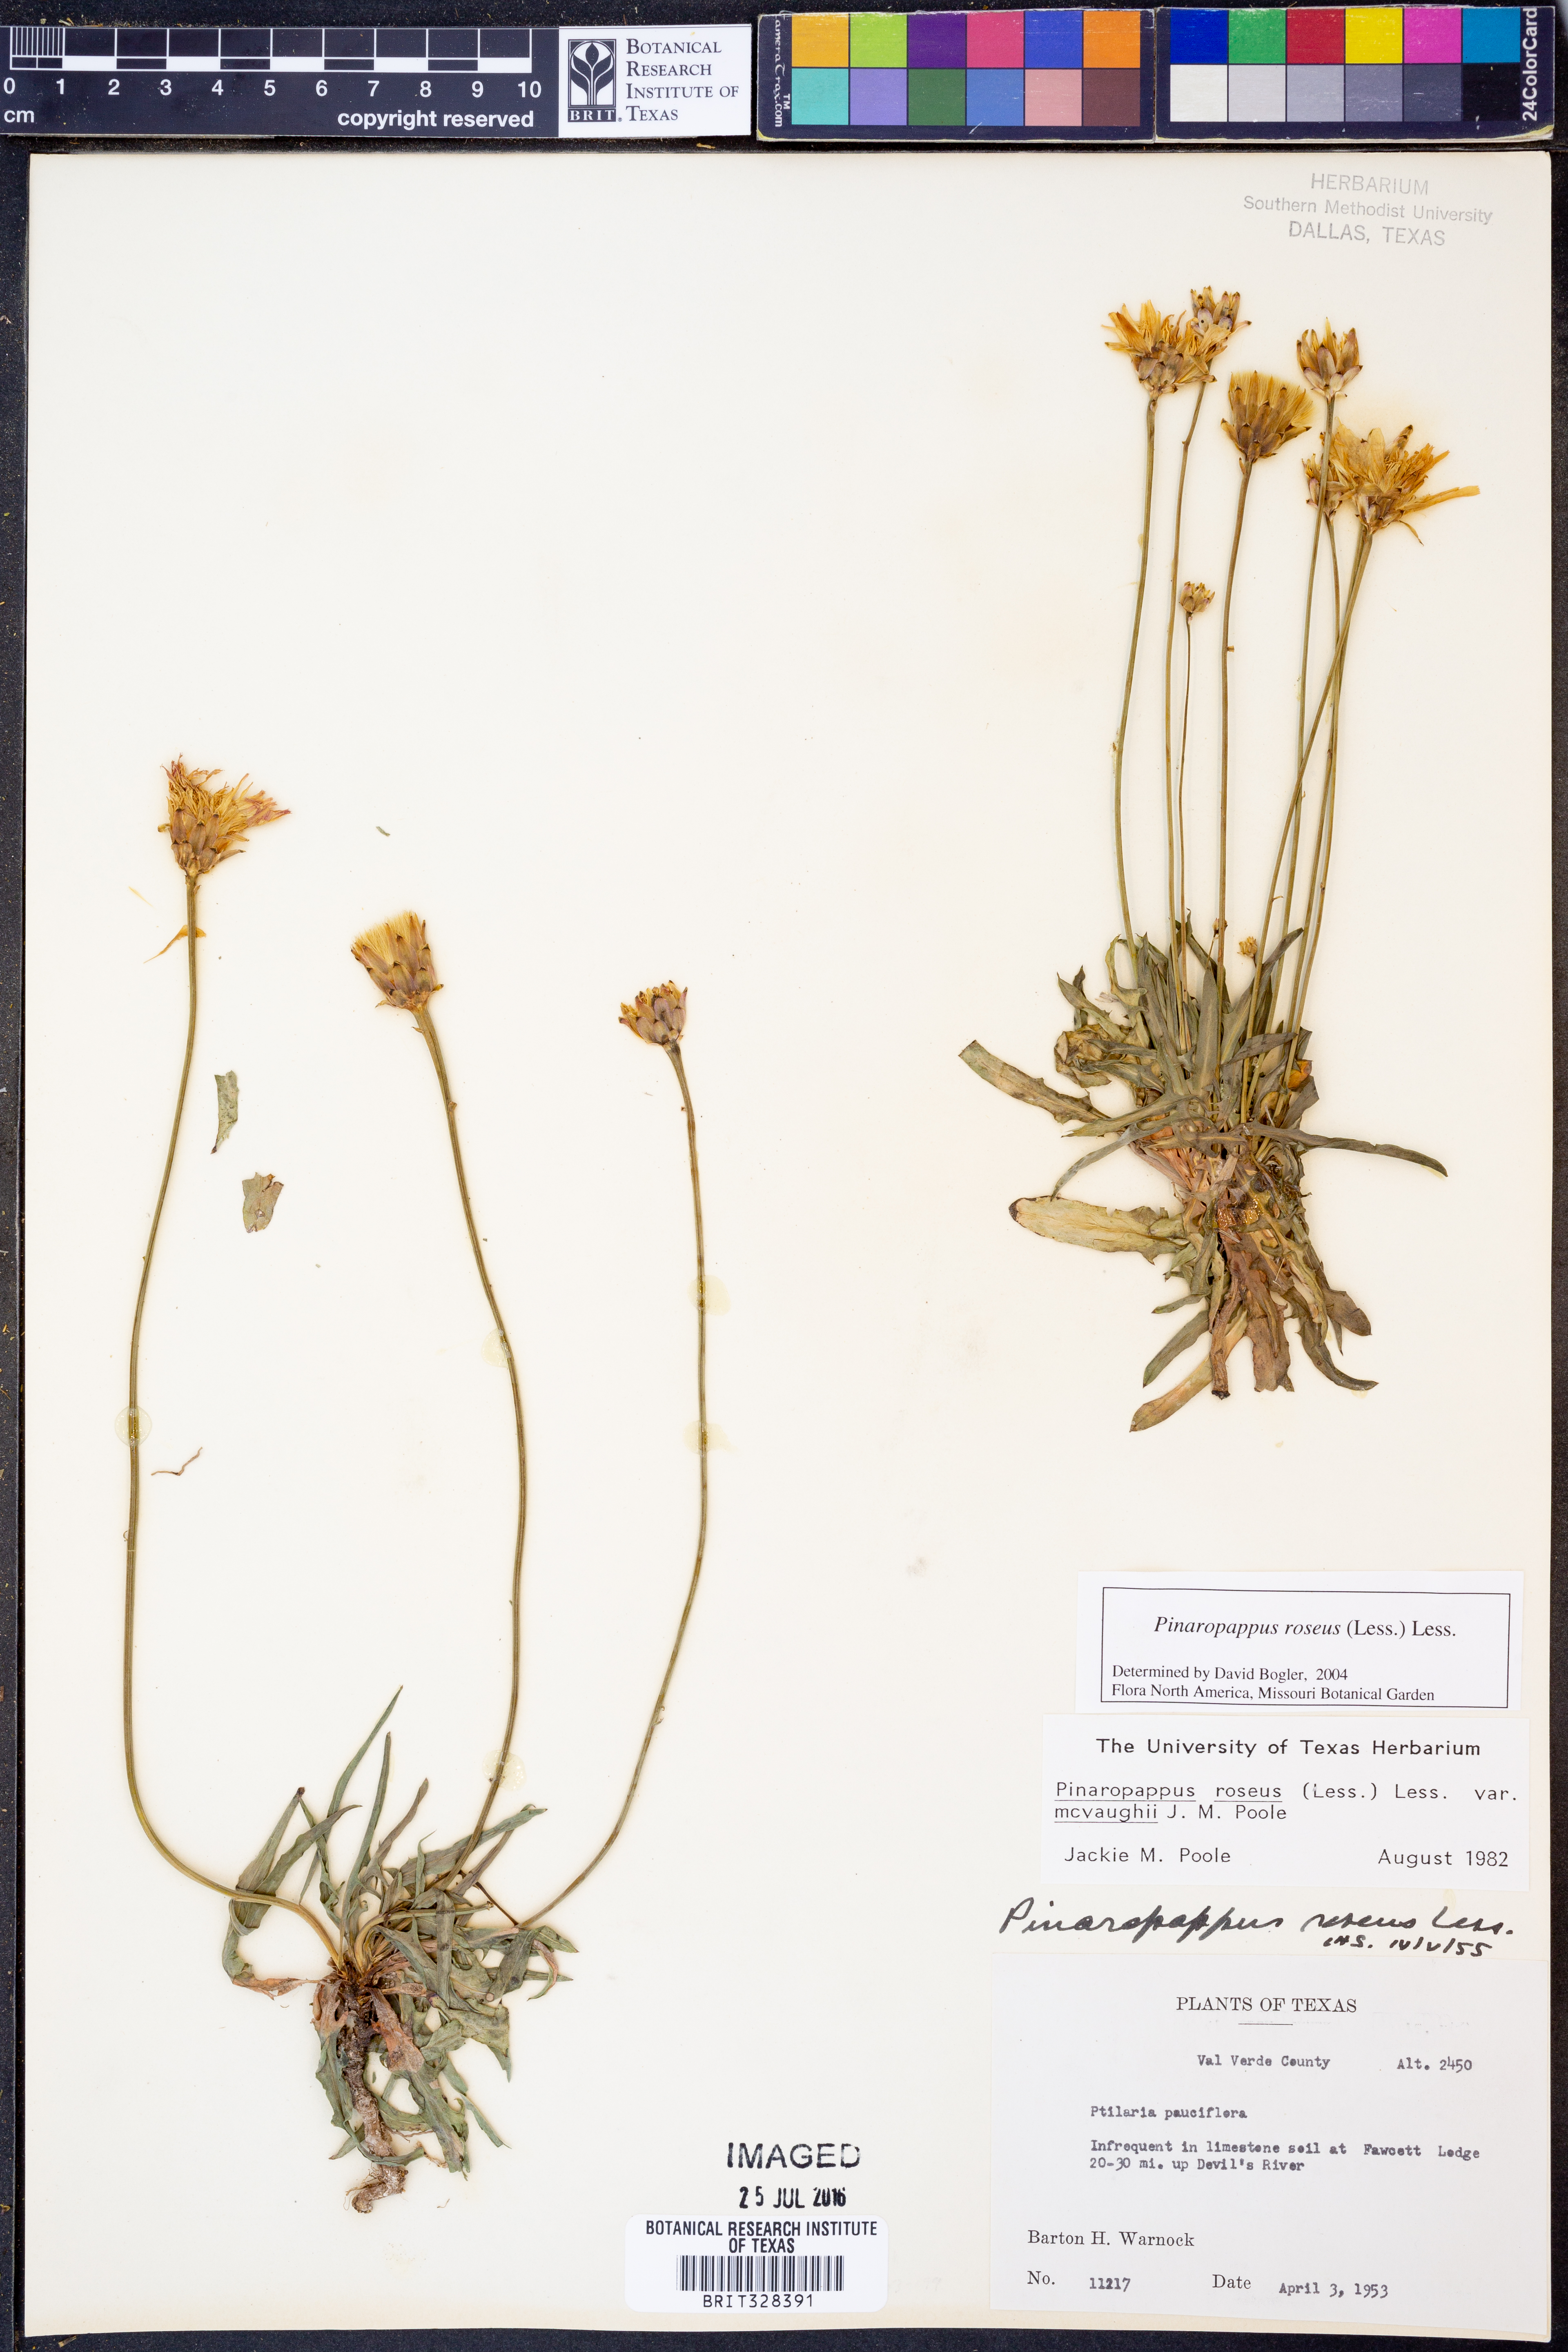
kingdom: Plantae
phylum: Tracheophyta
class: Magnoliopsida
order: Asterales
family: Asteraceae
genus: Pinaropappus
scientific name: Pinaropappus roseus
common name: Rock-lettuce
